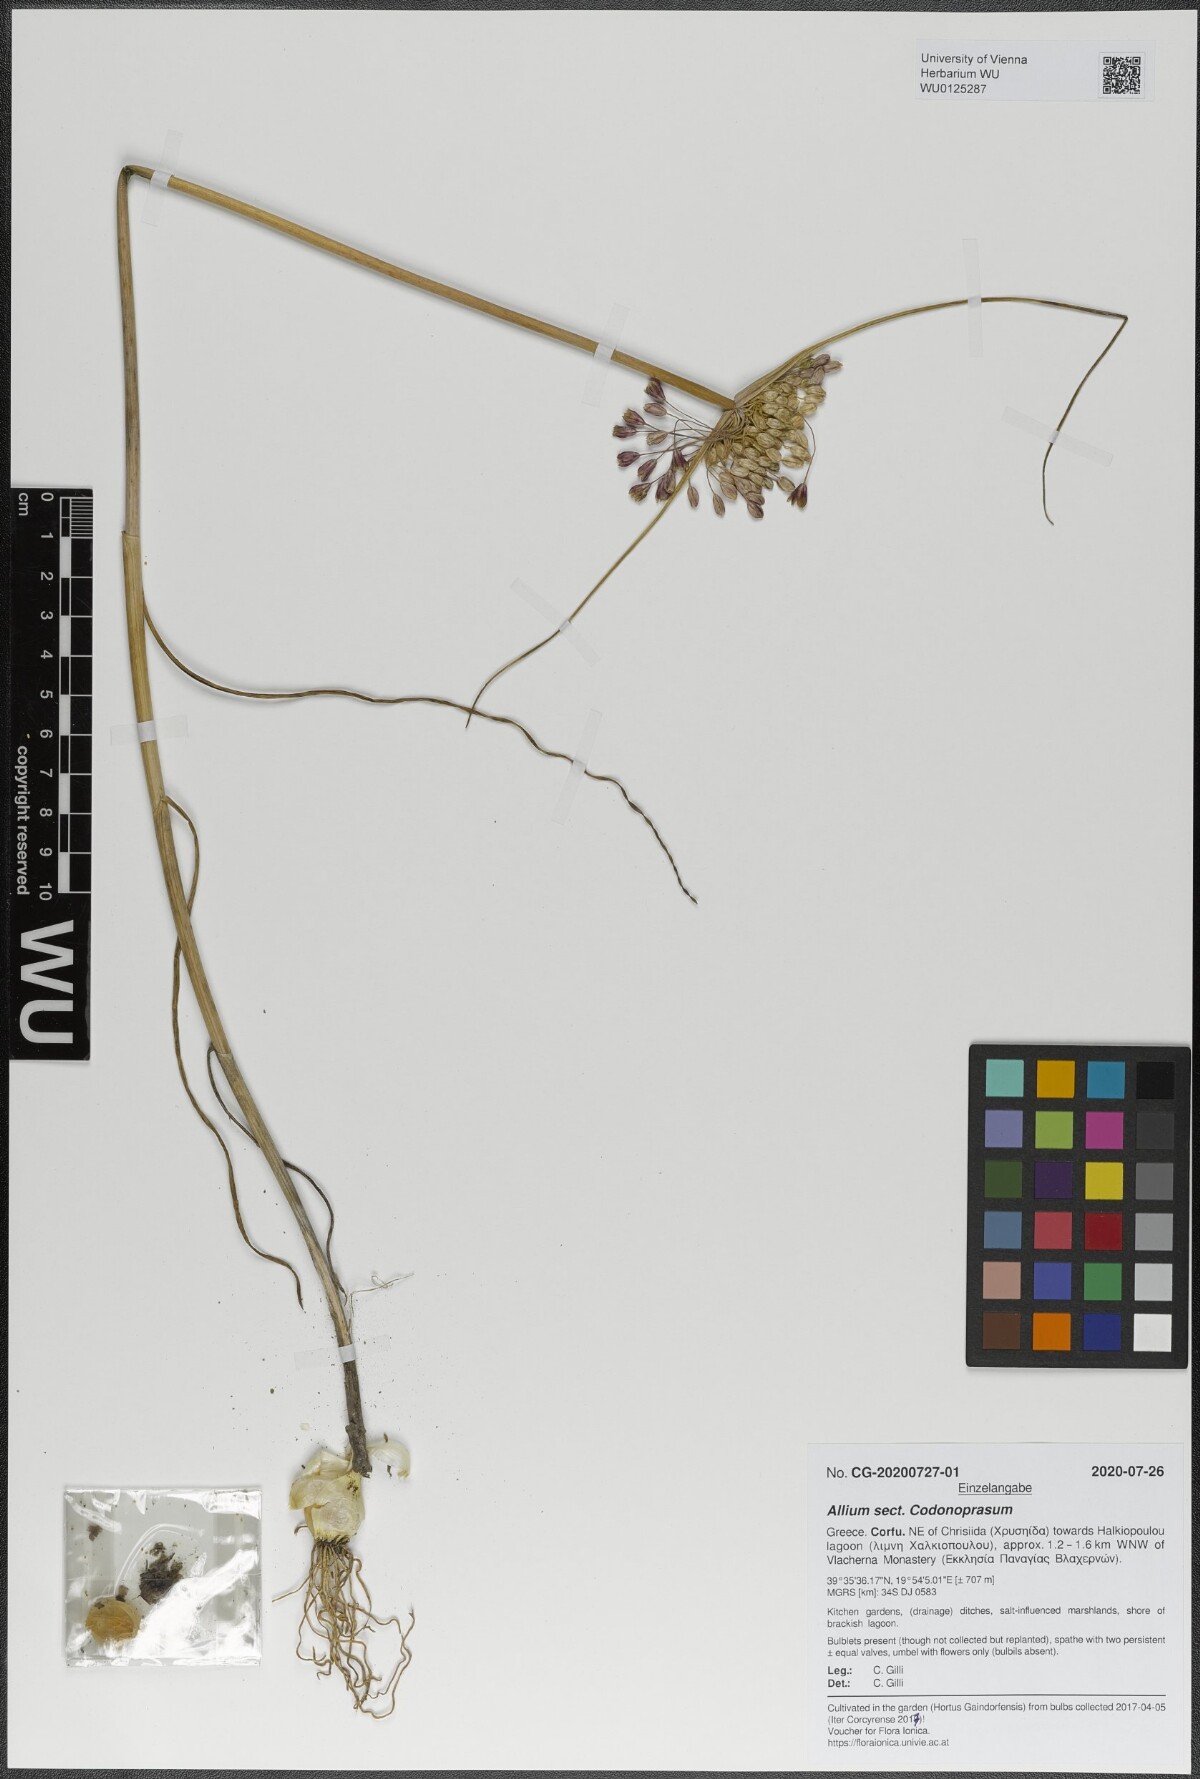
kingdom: Plantae
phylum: Tracheophyta
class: Liliopsida
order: Asparagales
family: Amaryllidaceae
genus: Allium
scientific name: Allium
